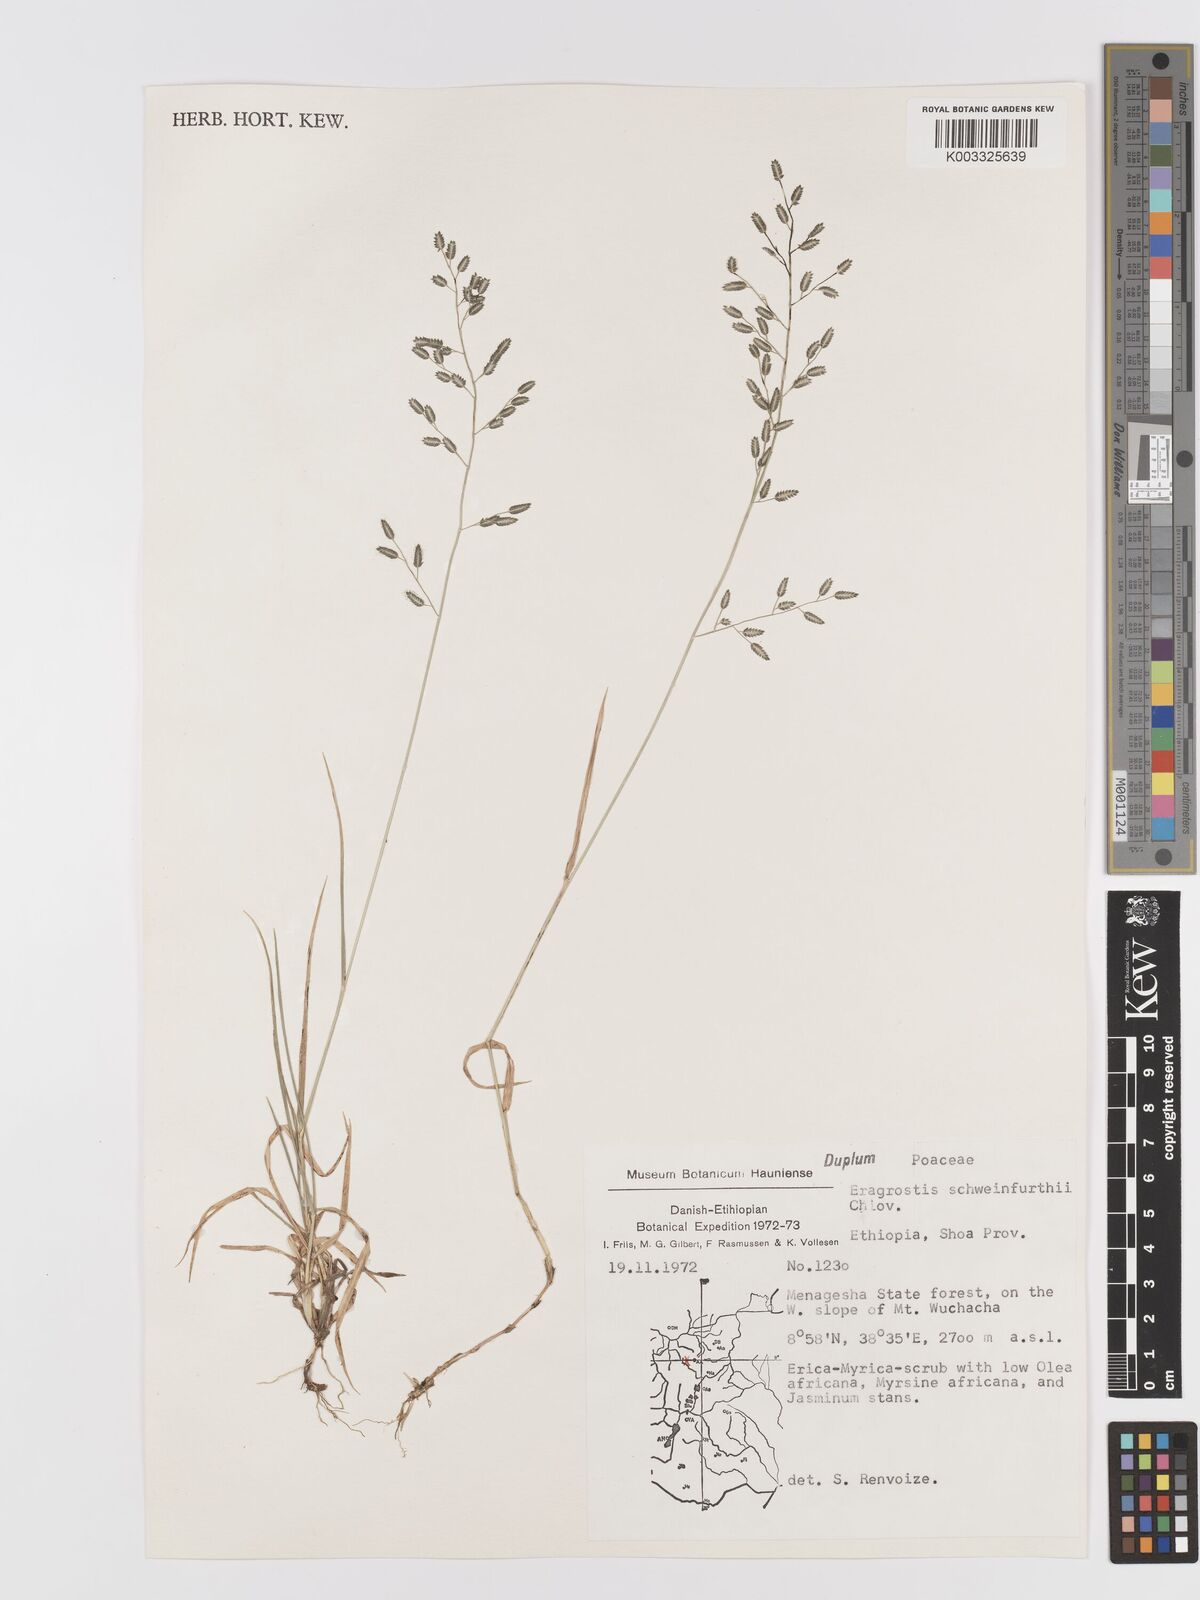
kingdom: Plantae
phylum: Tracheophyta
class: Liliopsida
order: Poales
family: Poaceae
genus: Eragrostis
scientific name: Eragrostis schweinfurthii
